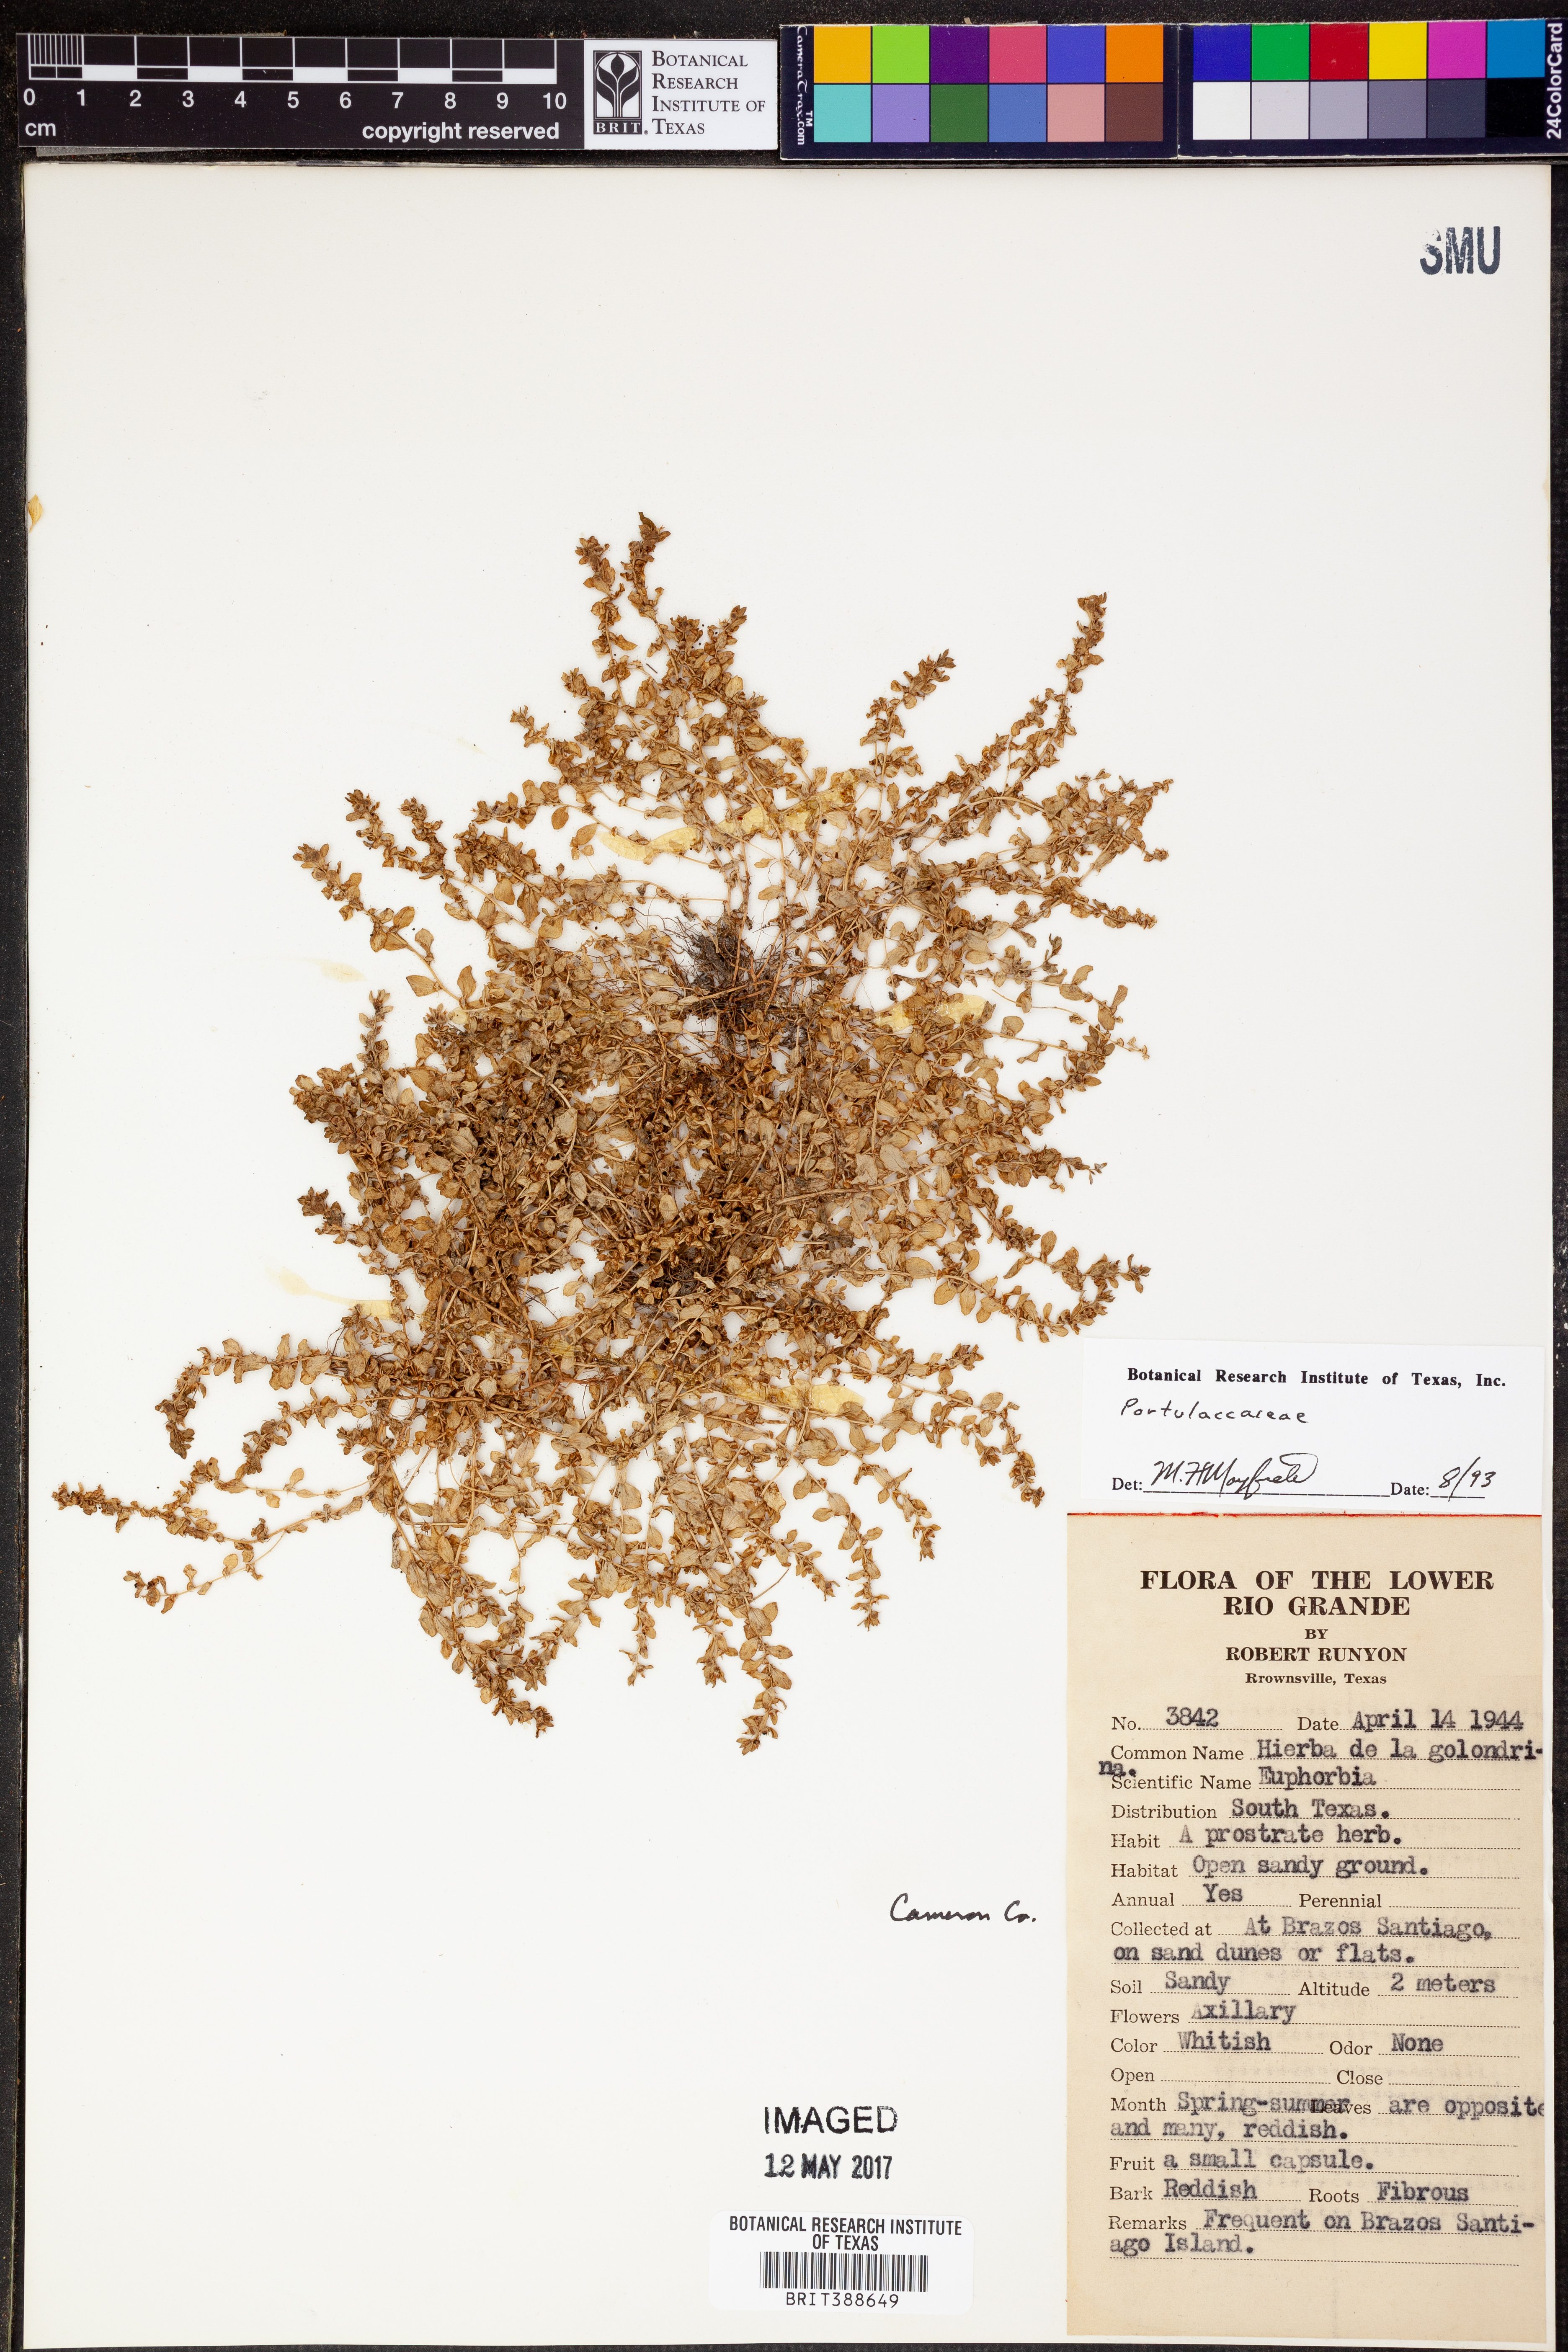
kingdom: Plantae
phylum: Tracheophyta
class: Magnoliopsida
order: Caryophyllales
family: Portulacaceae
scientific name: Portulacaceae
